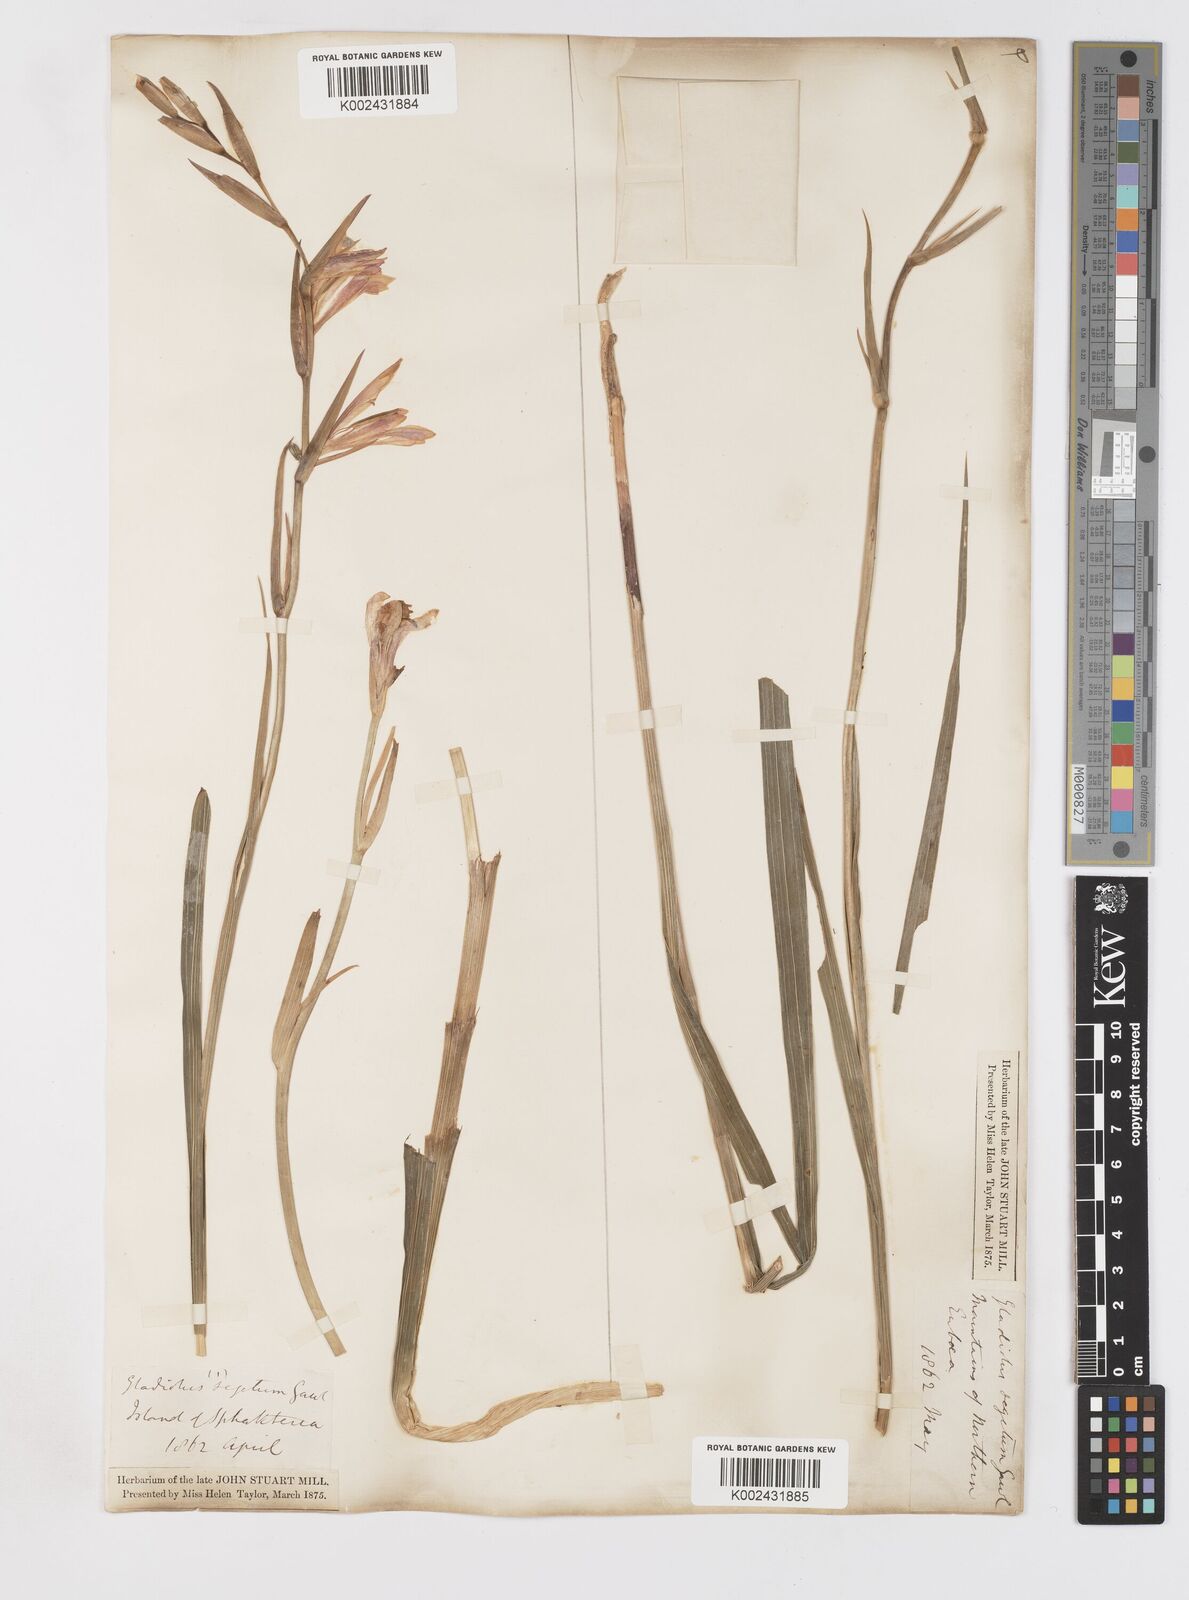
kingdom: Plantae
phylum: Tracheophyta
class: Liliopsida
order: Asparagales
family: Iridaceae
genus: Gladiolus
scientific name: Gladiolus italicus
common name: Field gladiolus
